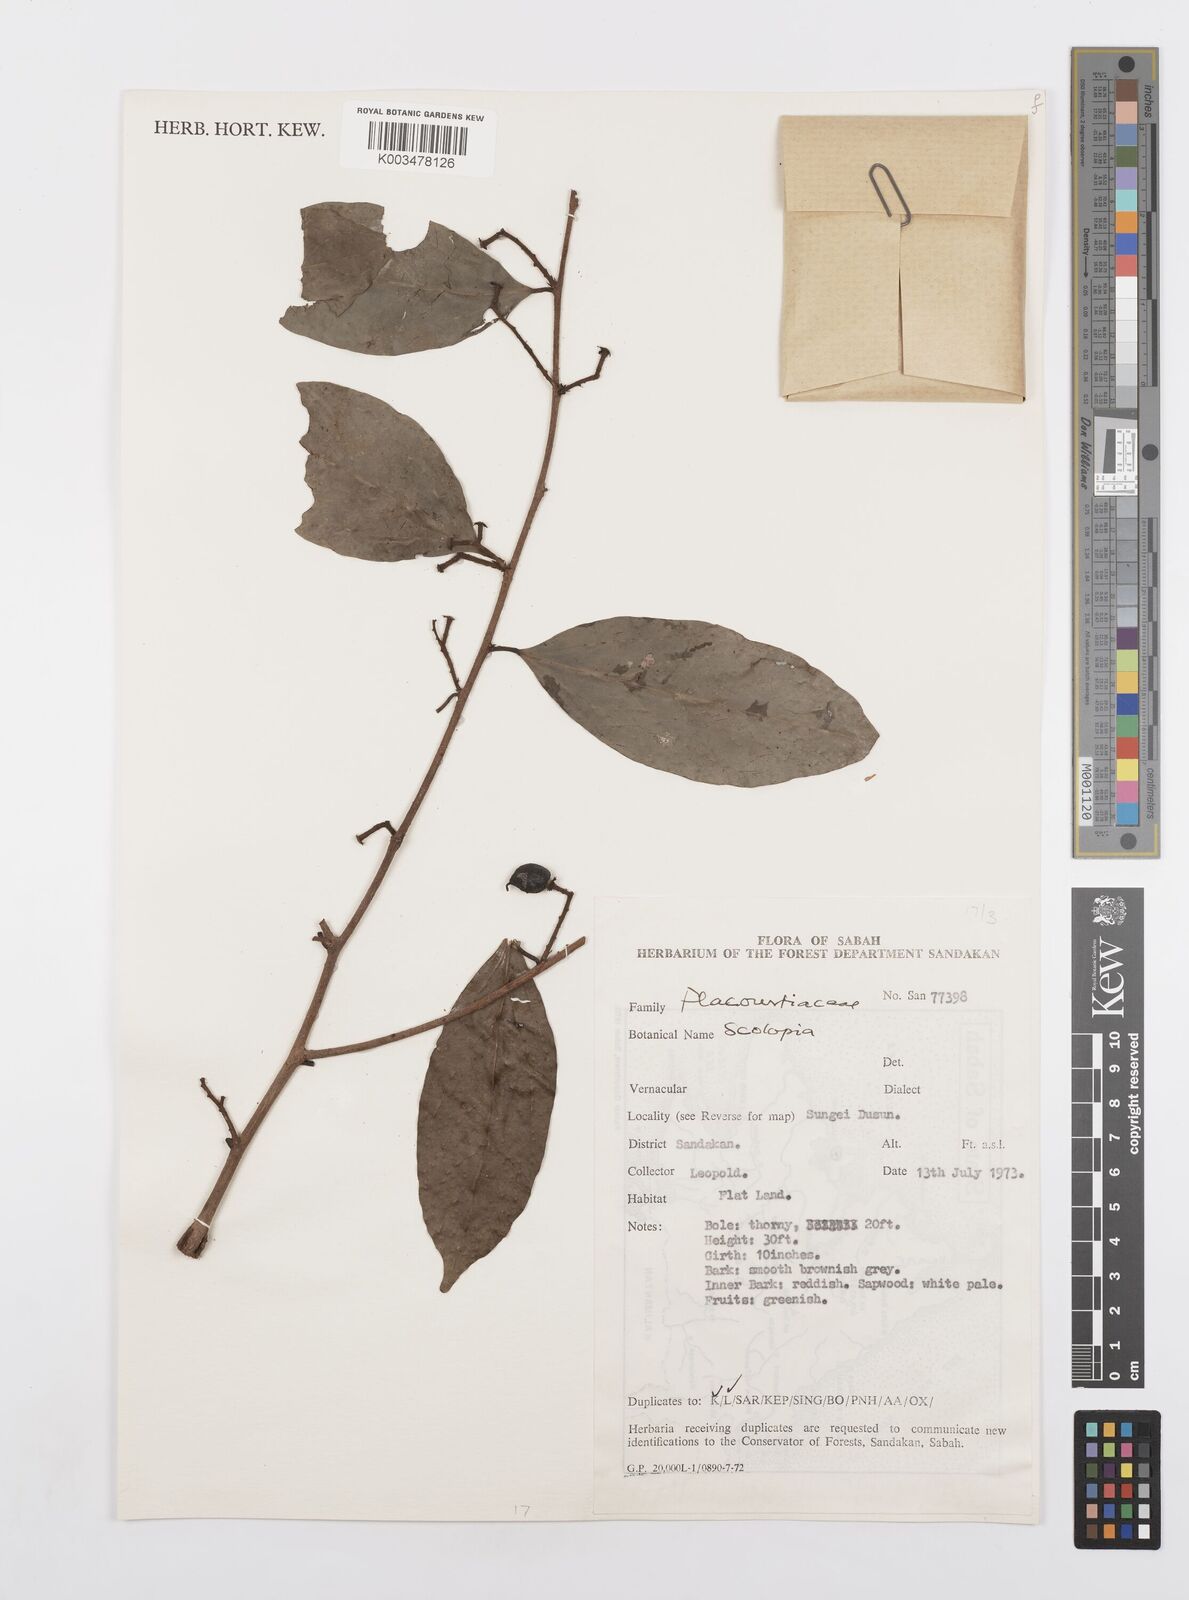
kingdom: Plantae
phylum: Tracheophyta
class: Magnoliopsida
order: Malpighiales
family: Salicaceae
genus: Scolopia
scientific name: Scolopia
